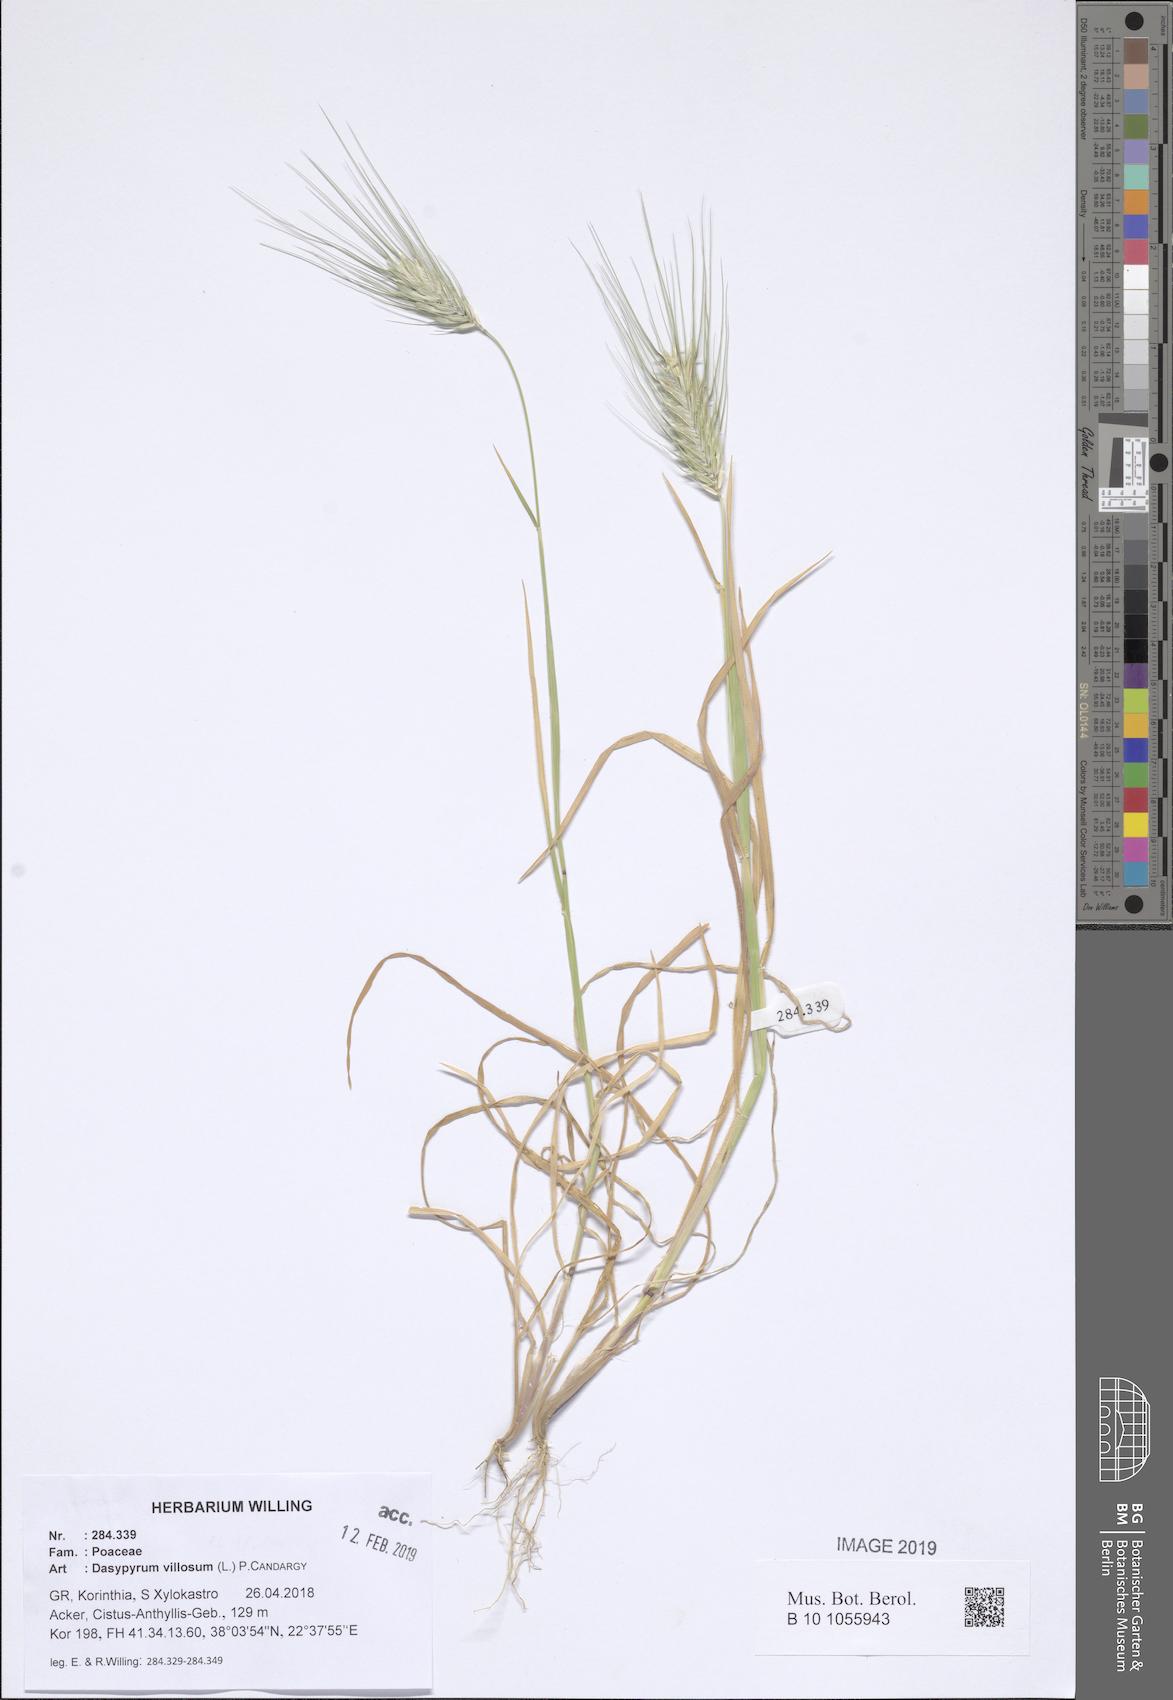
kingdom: Plantae
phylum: Tracheophyta
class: Liliopsida
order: Poales
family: Poaceae
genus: Dasypyrum
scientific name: Dasypyrum villosum
